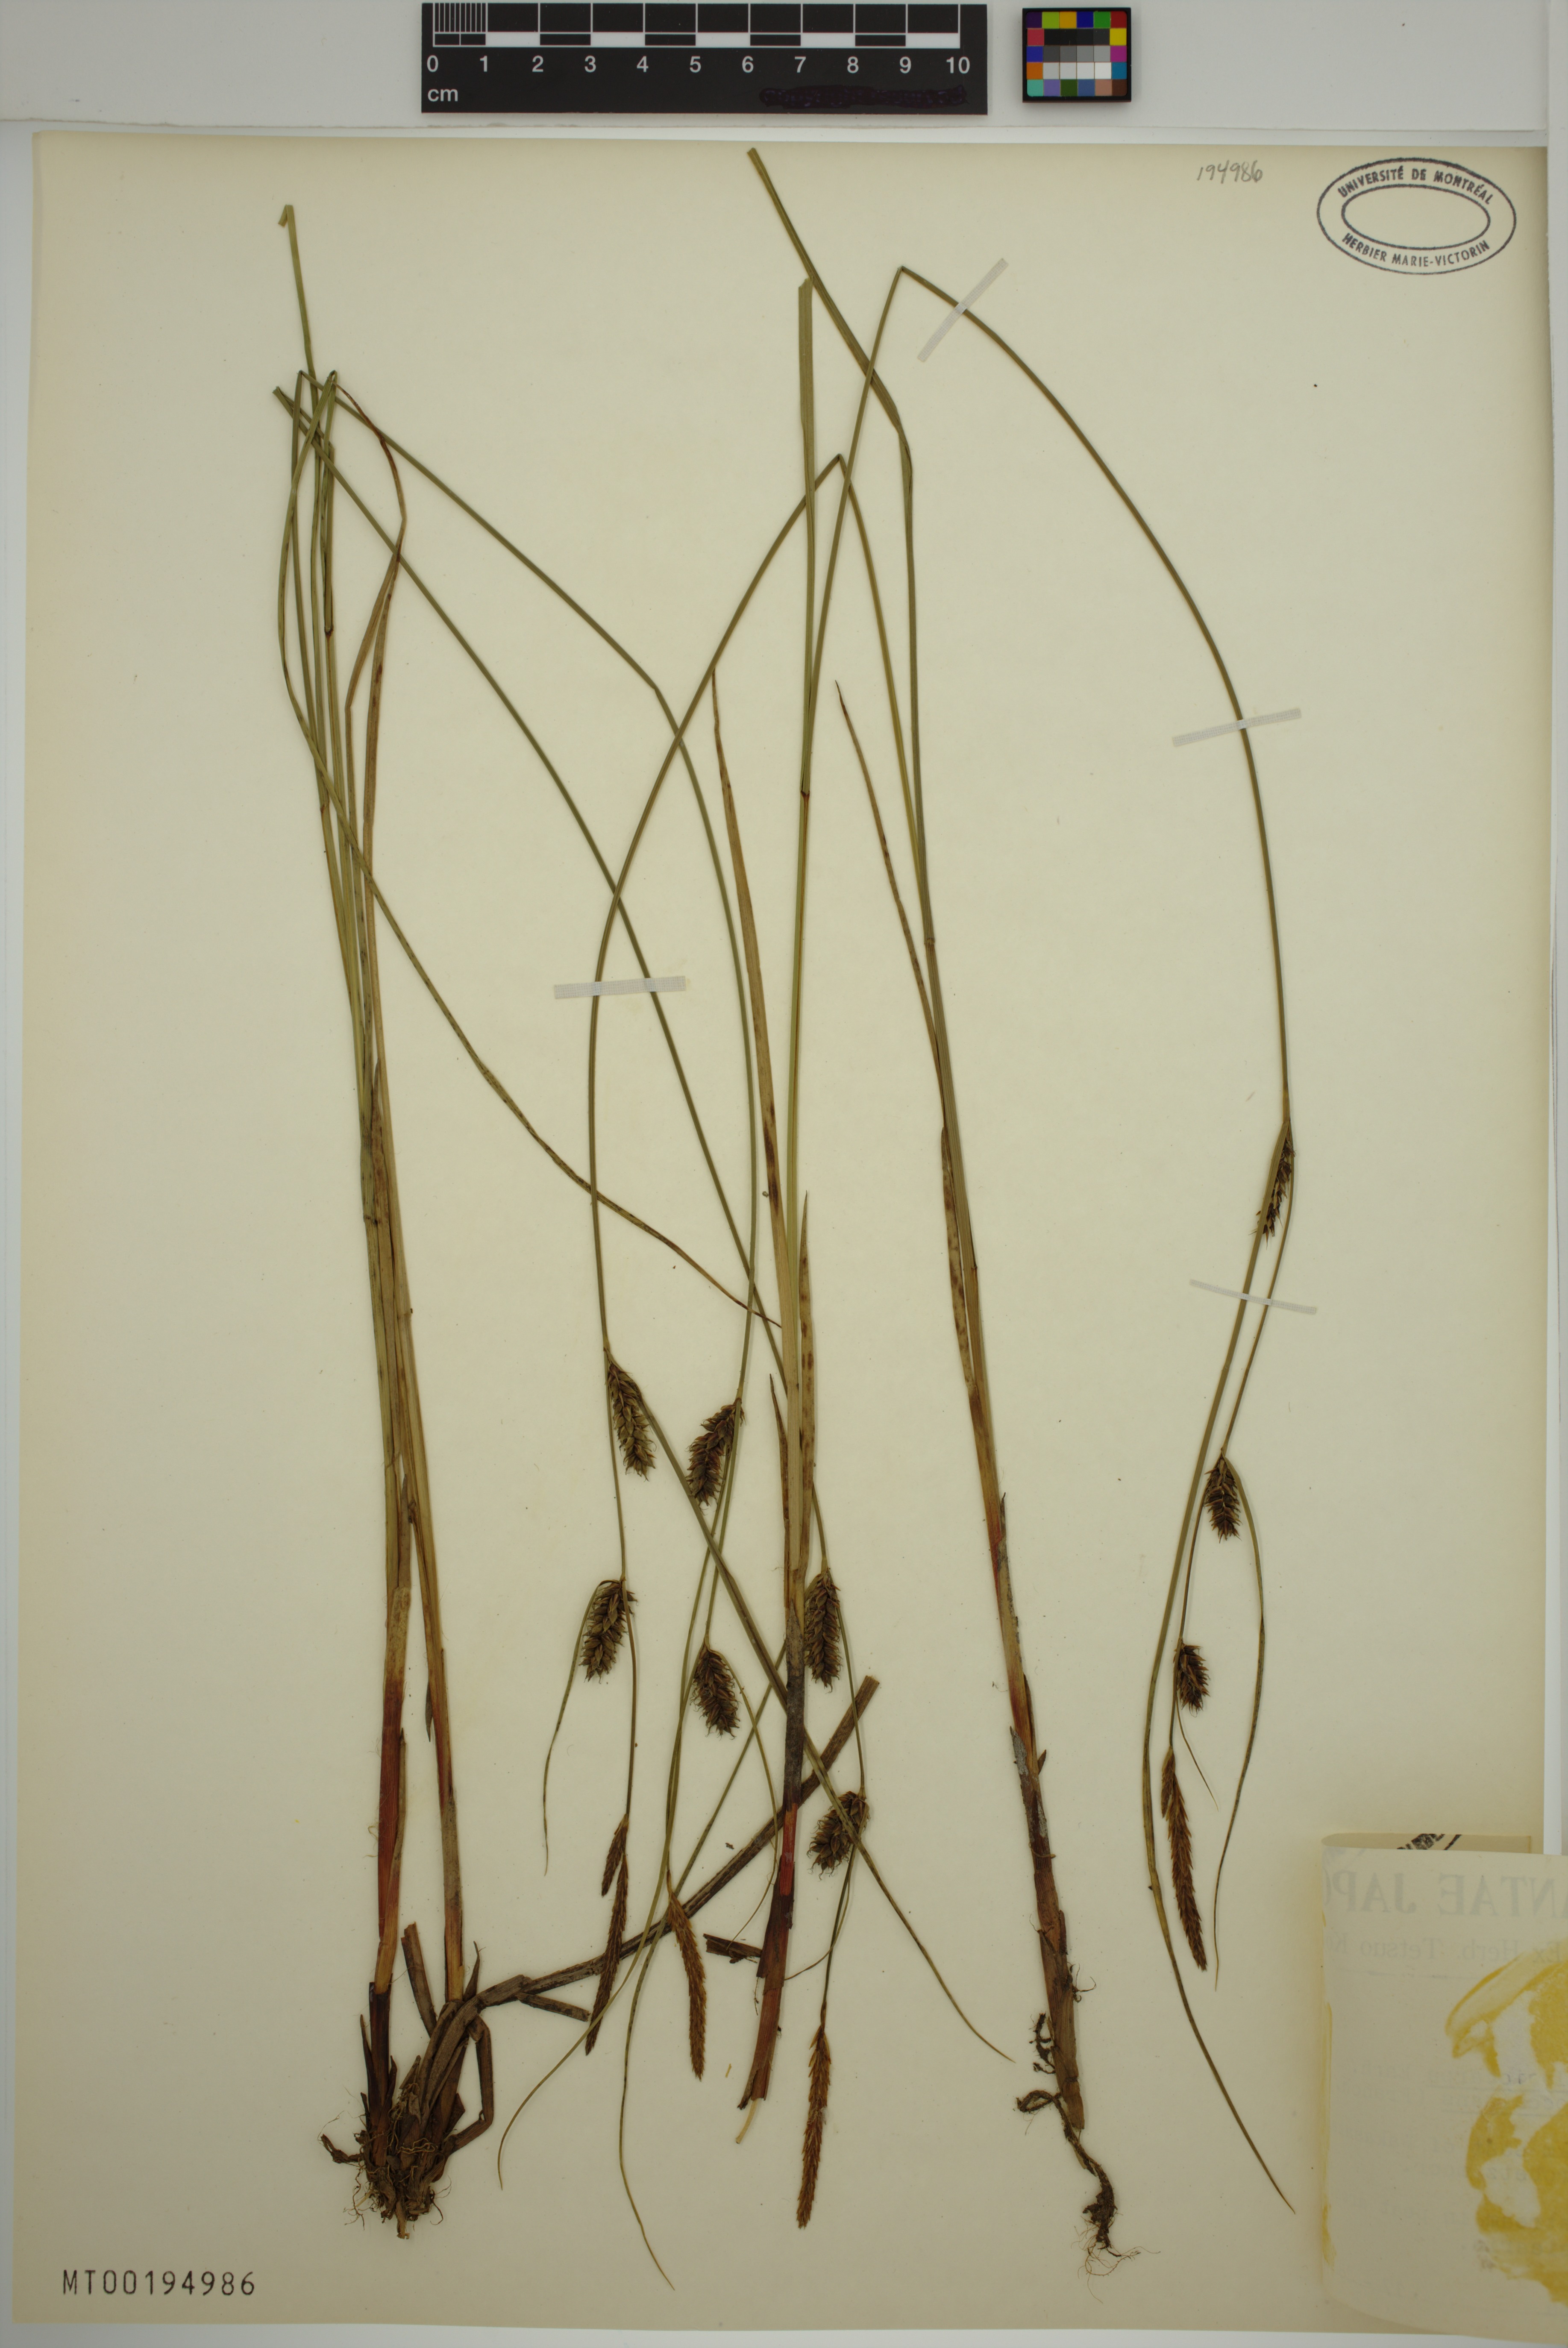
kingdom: Plantae
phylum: Tracheophyta
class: Liliopsida
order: Poales
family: Cyperaceae
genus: Carex
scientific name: Carex lasiocarpa
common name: Slender sedge
